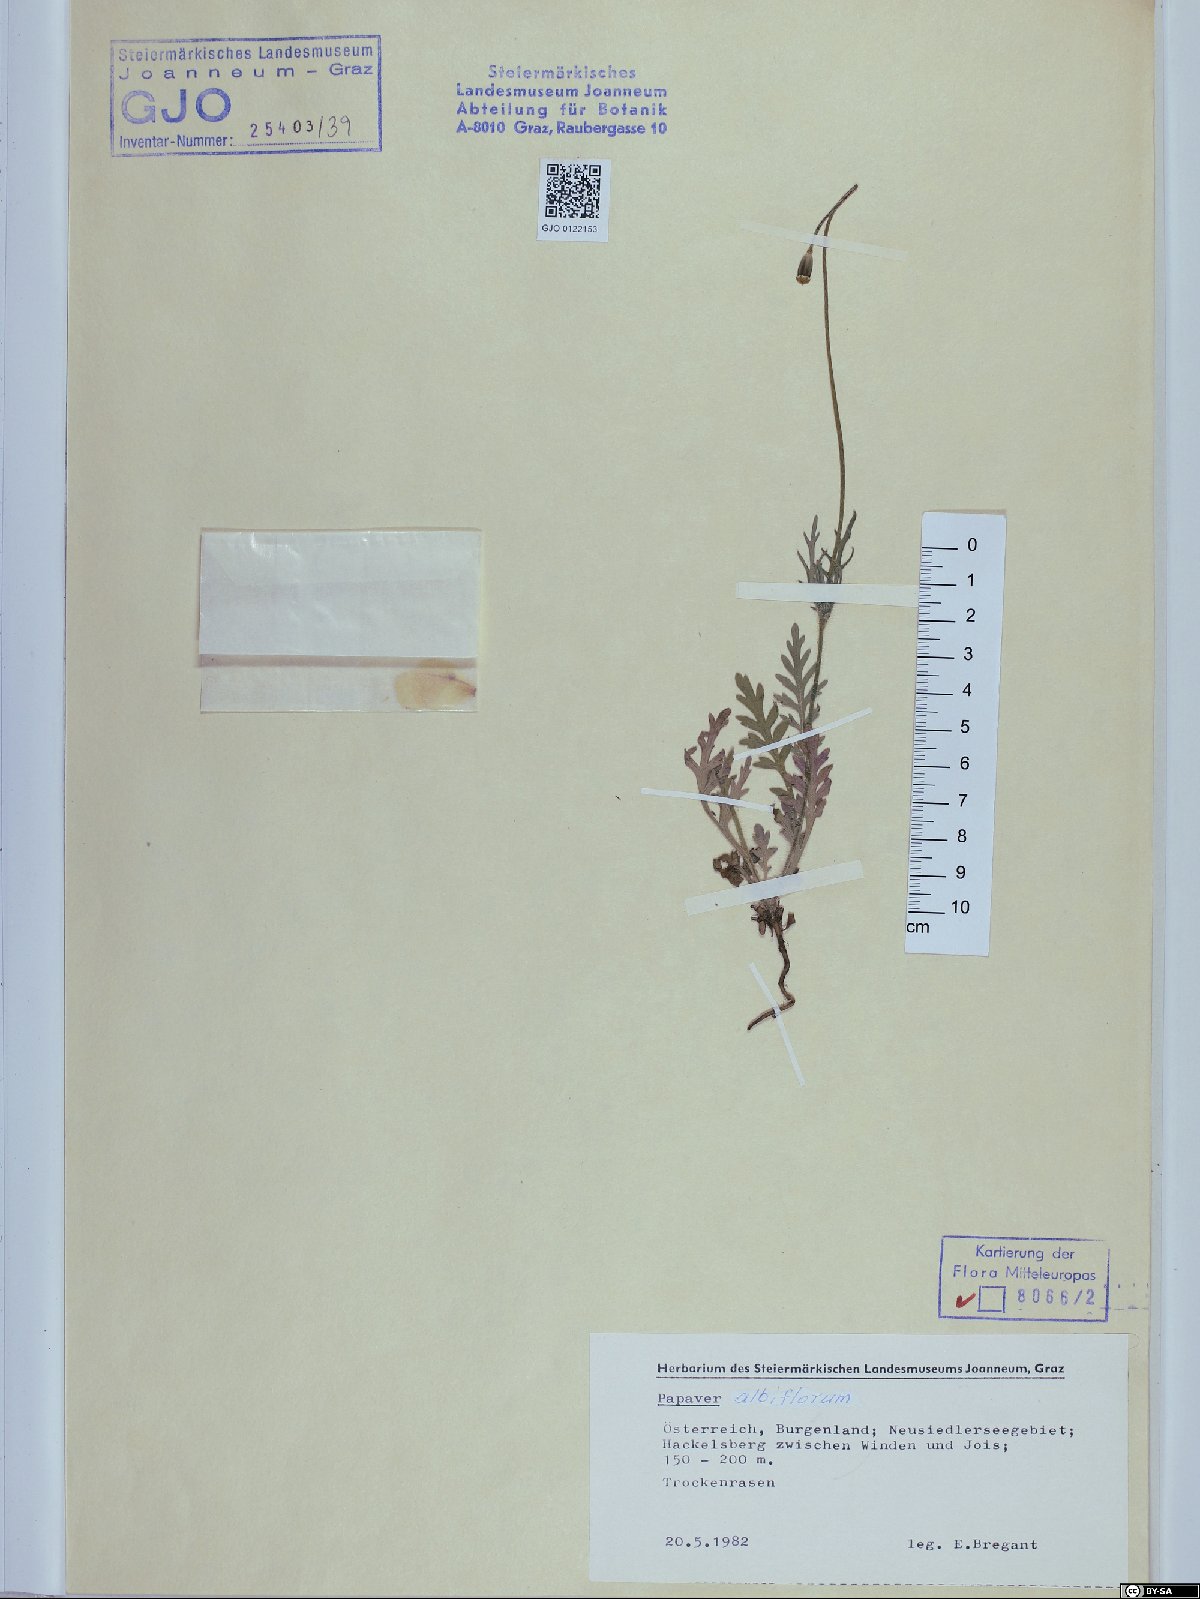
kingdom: Plantae
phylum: Tracheophyta
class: Magnoliopsida
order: Ranunculales
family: Papaveraceae
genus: Papaver
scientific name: Papaver dubium
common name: Long-headed poppy
